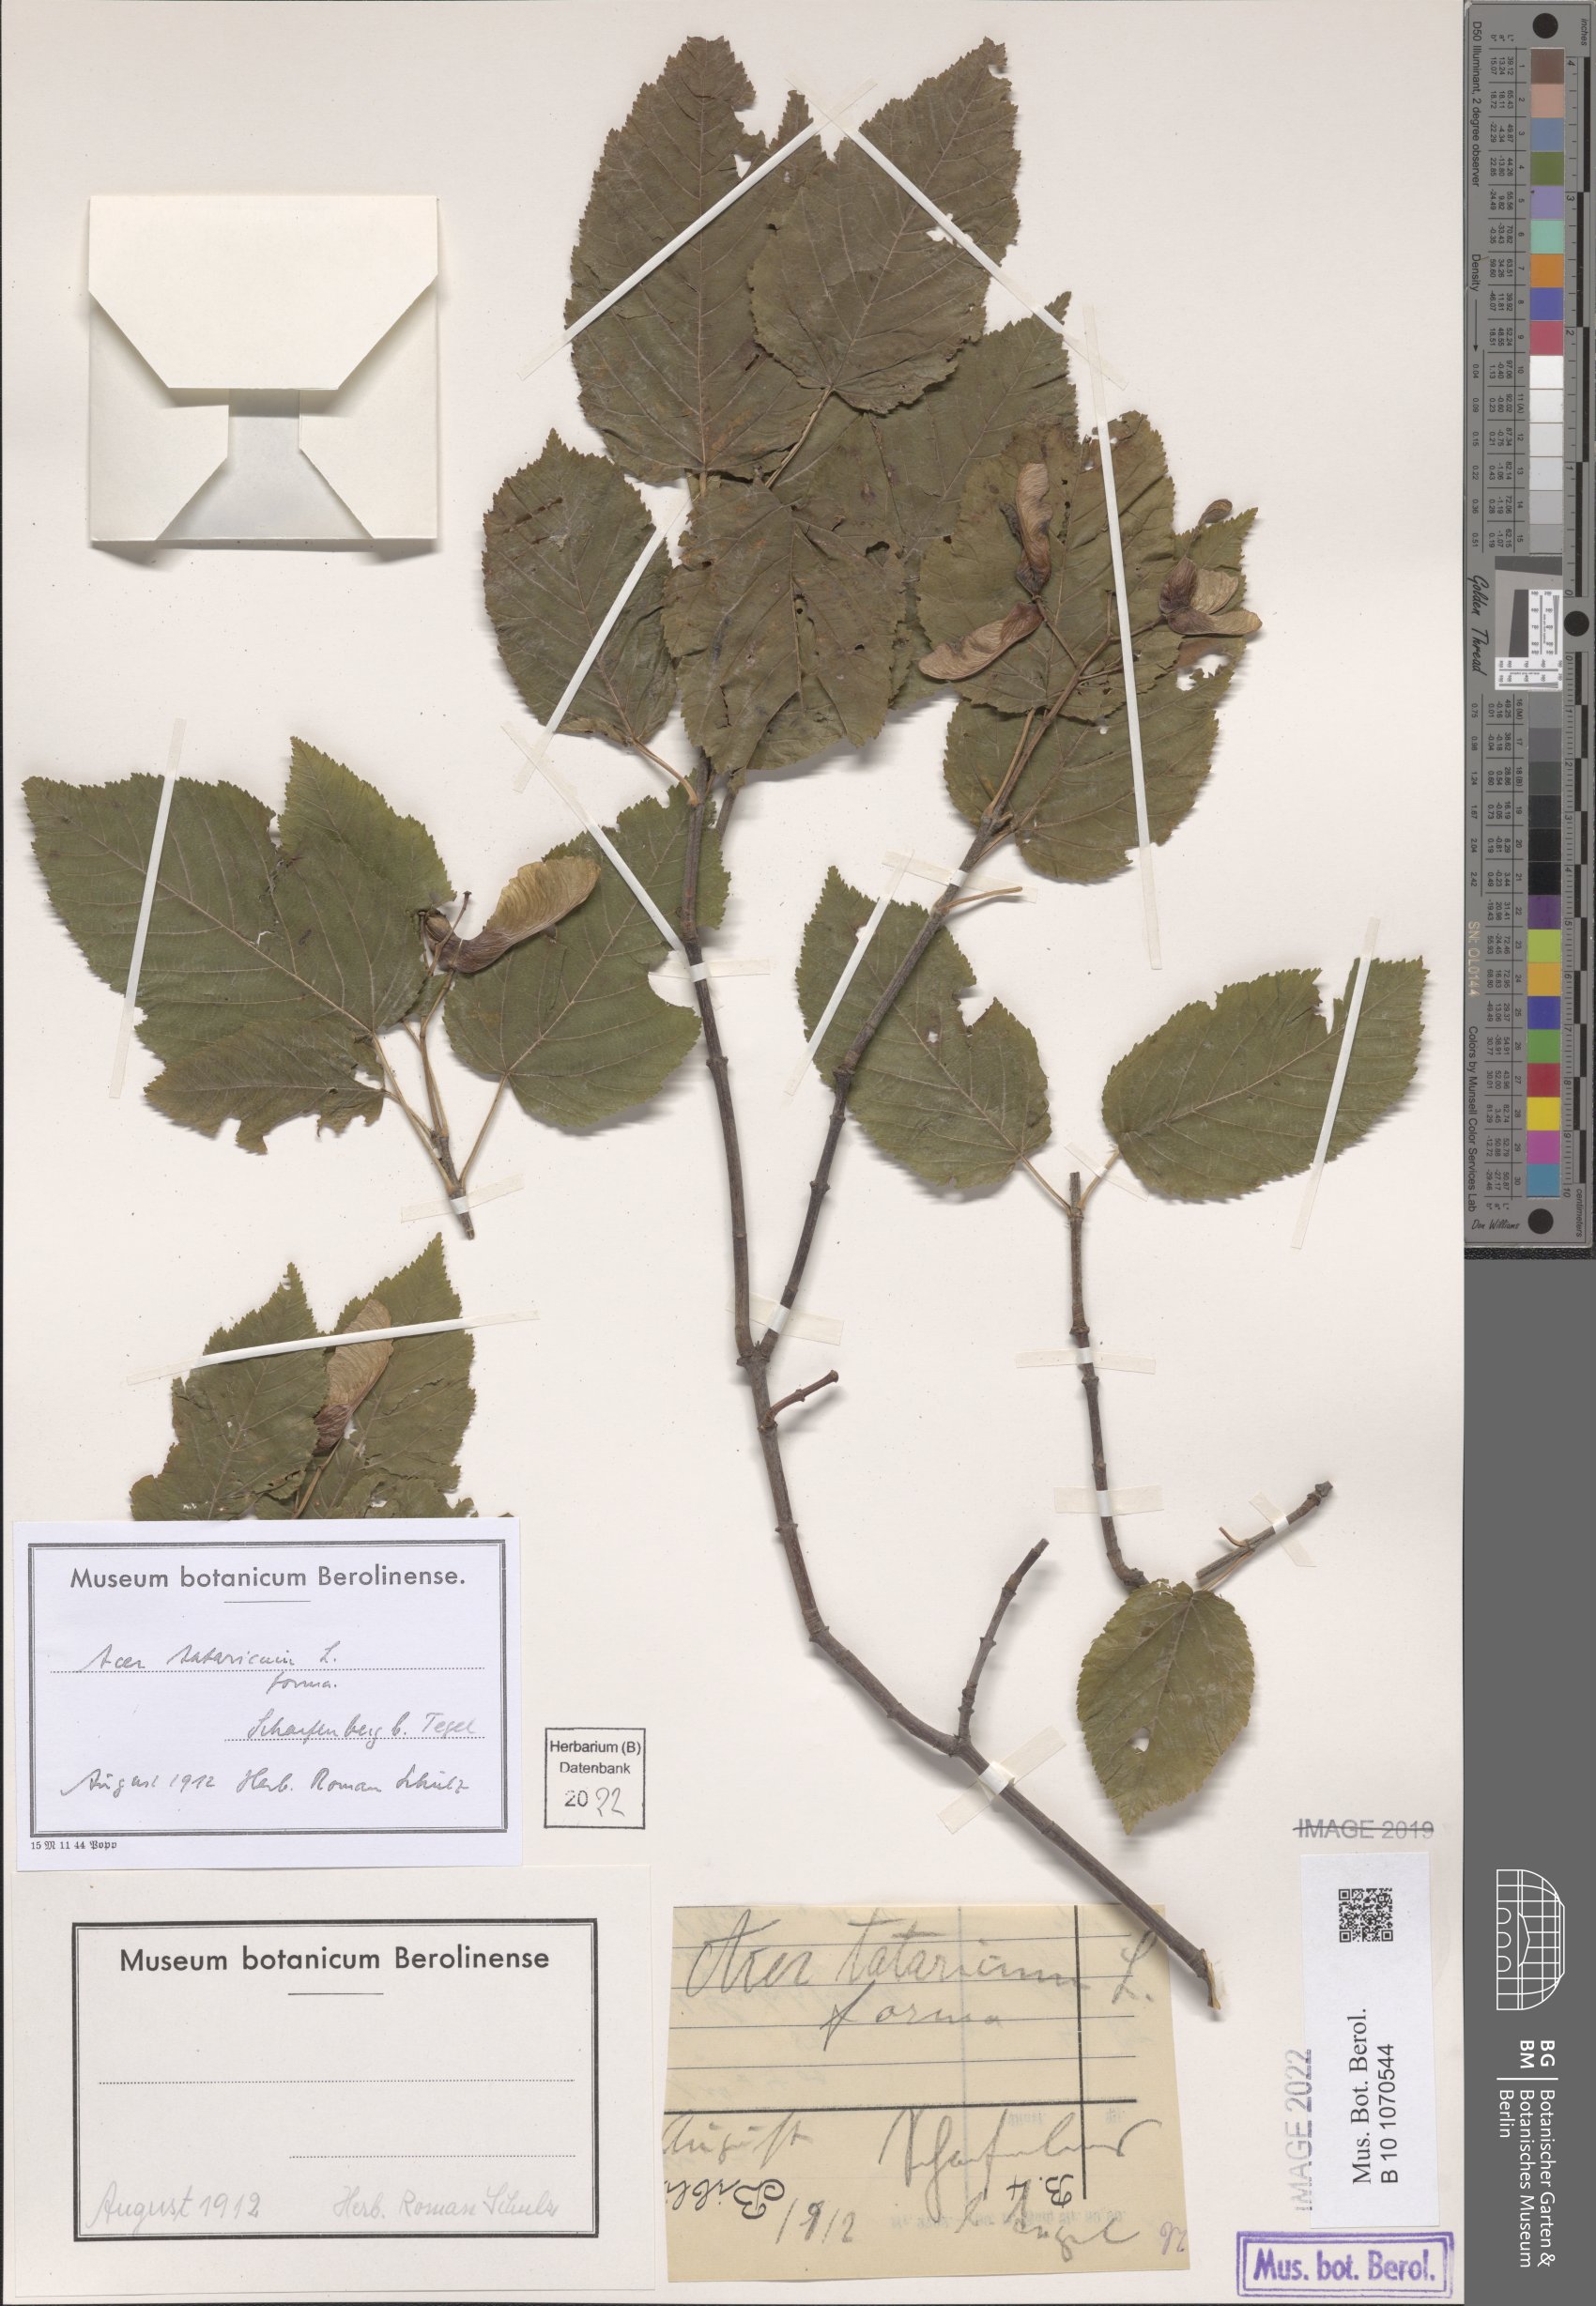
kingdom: Plantae
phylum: Tracheophyta
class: Magnoliopsida
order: Sapindales
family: Sapindaceae
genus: Acer
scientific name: Acer tataricum
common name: Tartar maple
